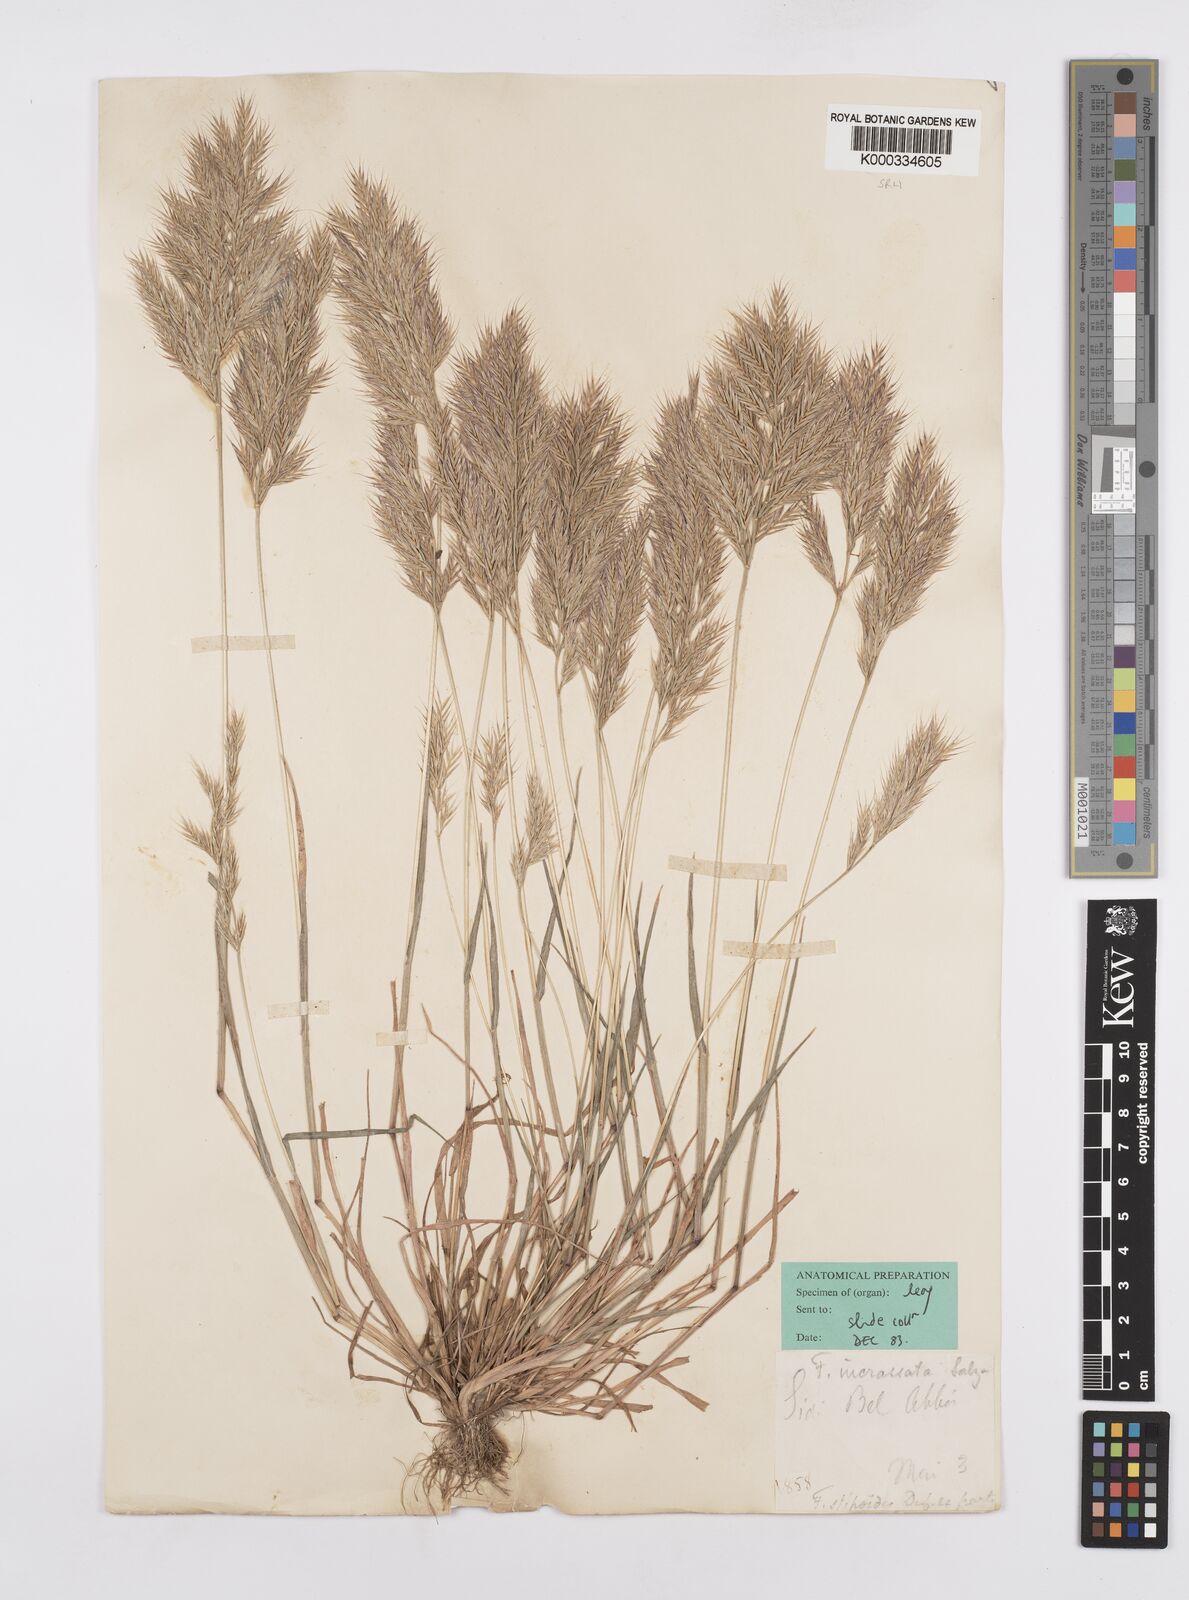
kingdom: Plantae
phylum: Tracheophyta
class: Liliopsida
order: Poales
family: Poaceae
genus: Vulpiella
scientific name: Vulpiella stipoides
